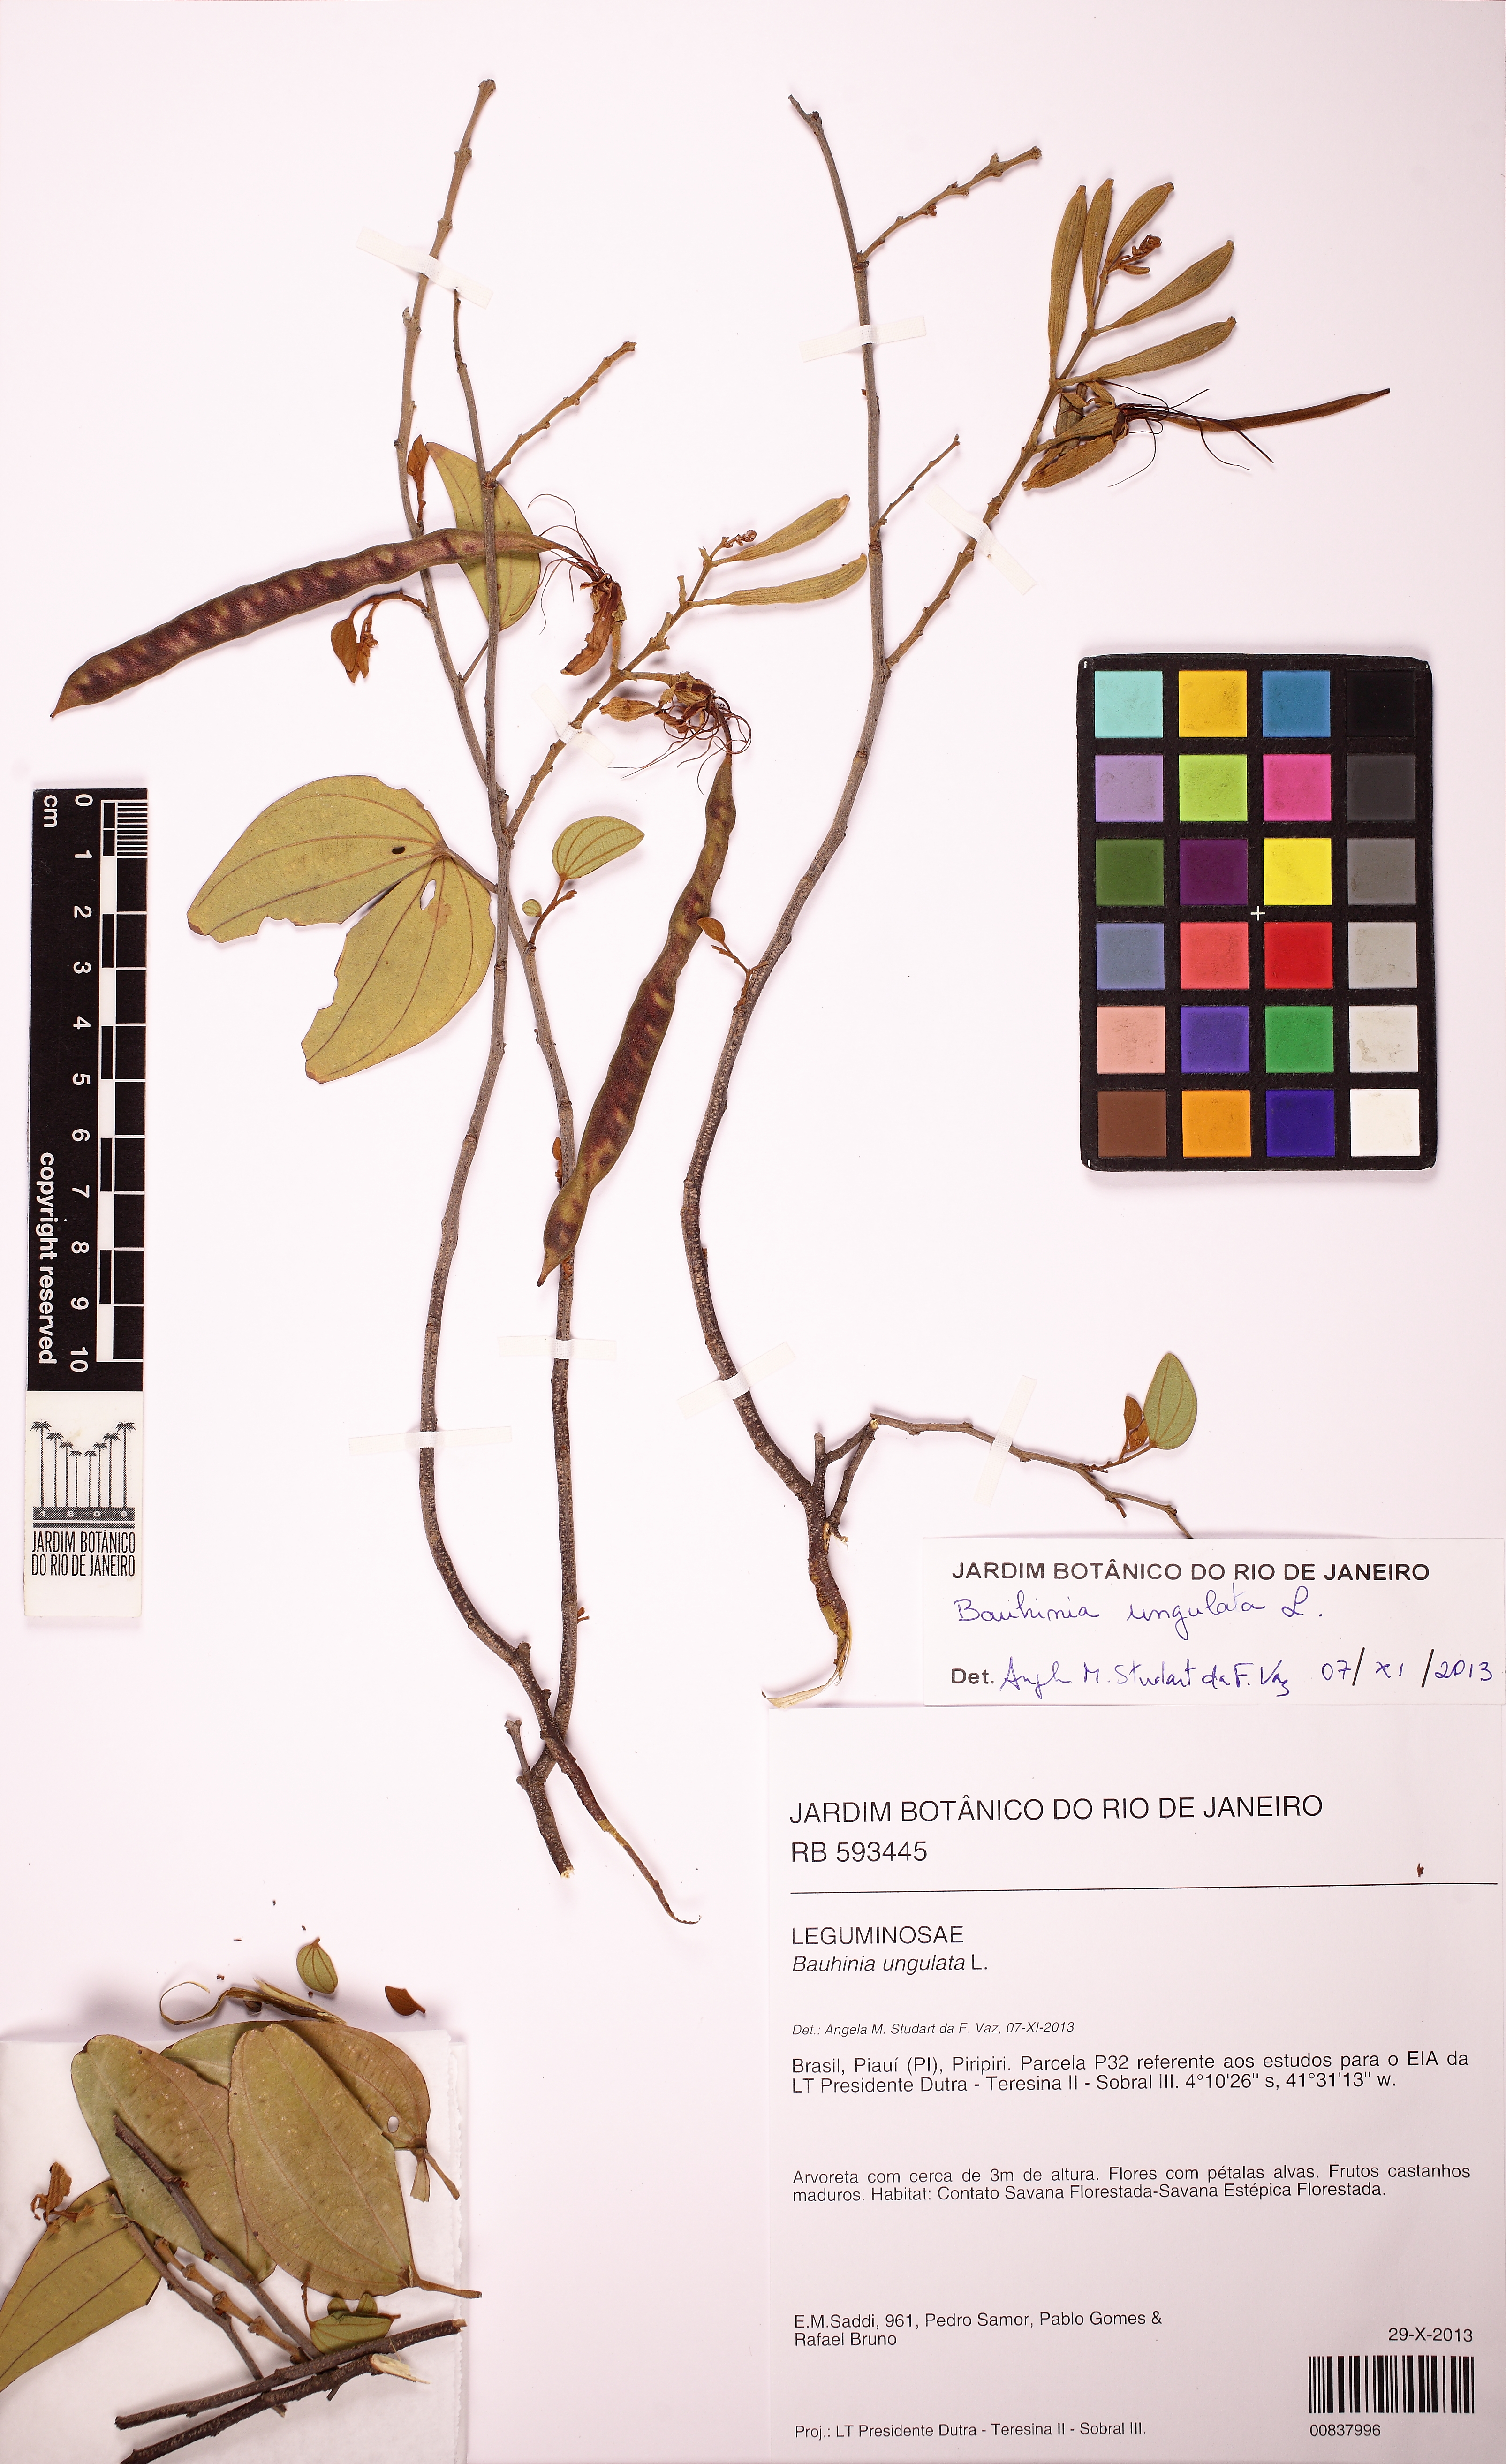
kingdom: Plantae
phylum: Tracheophyta
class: Magnoliopsida
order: Fabales
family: Fabaceae
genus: Bauhinia
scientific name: Bauhinia ungulata
